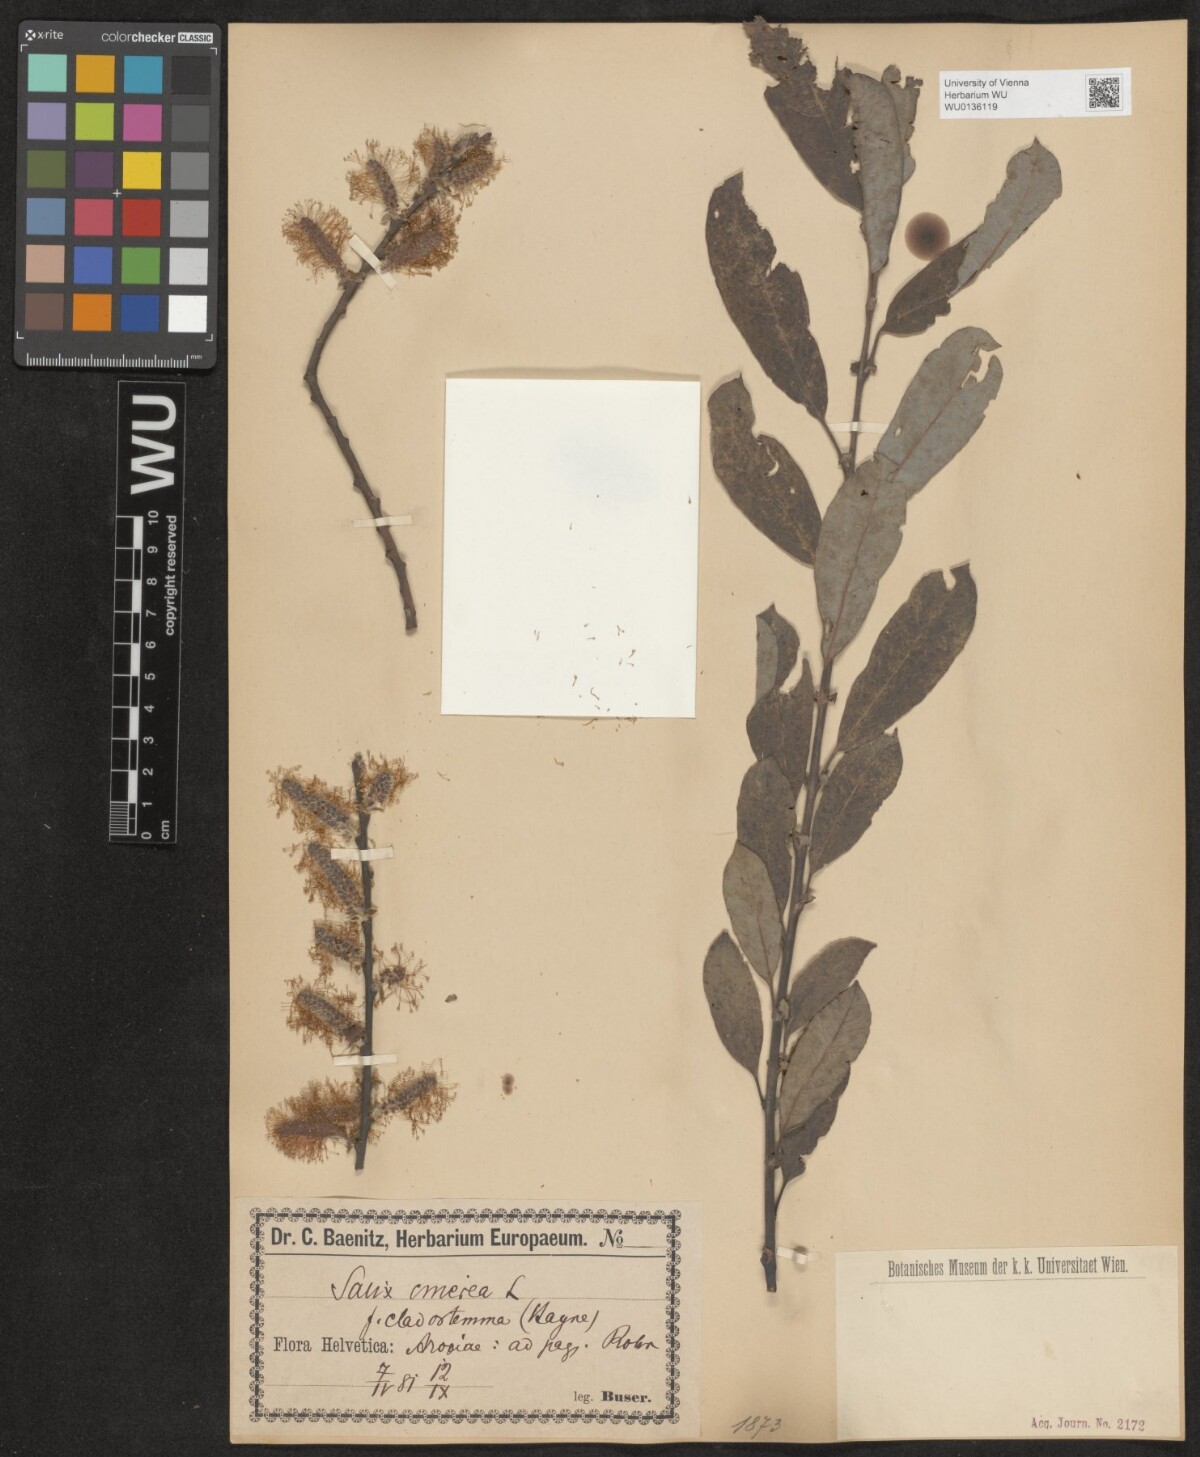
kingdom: Plantae
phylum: Tracheophyta
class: Magnoliopsida
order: Malpighiales
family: Salicaceae
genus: Salix
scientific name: Salix cinerea
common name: Common sallow
